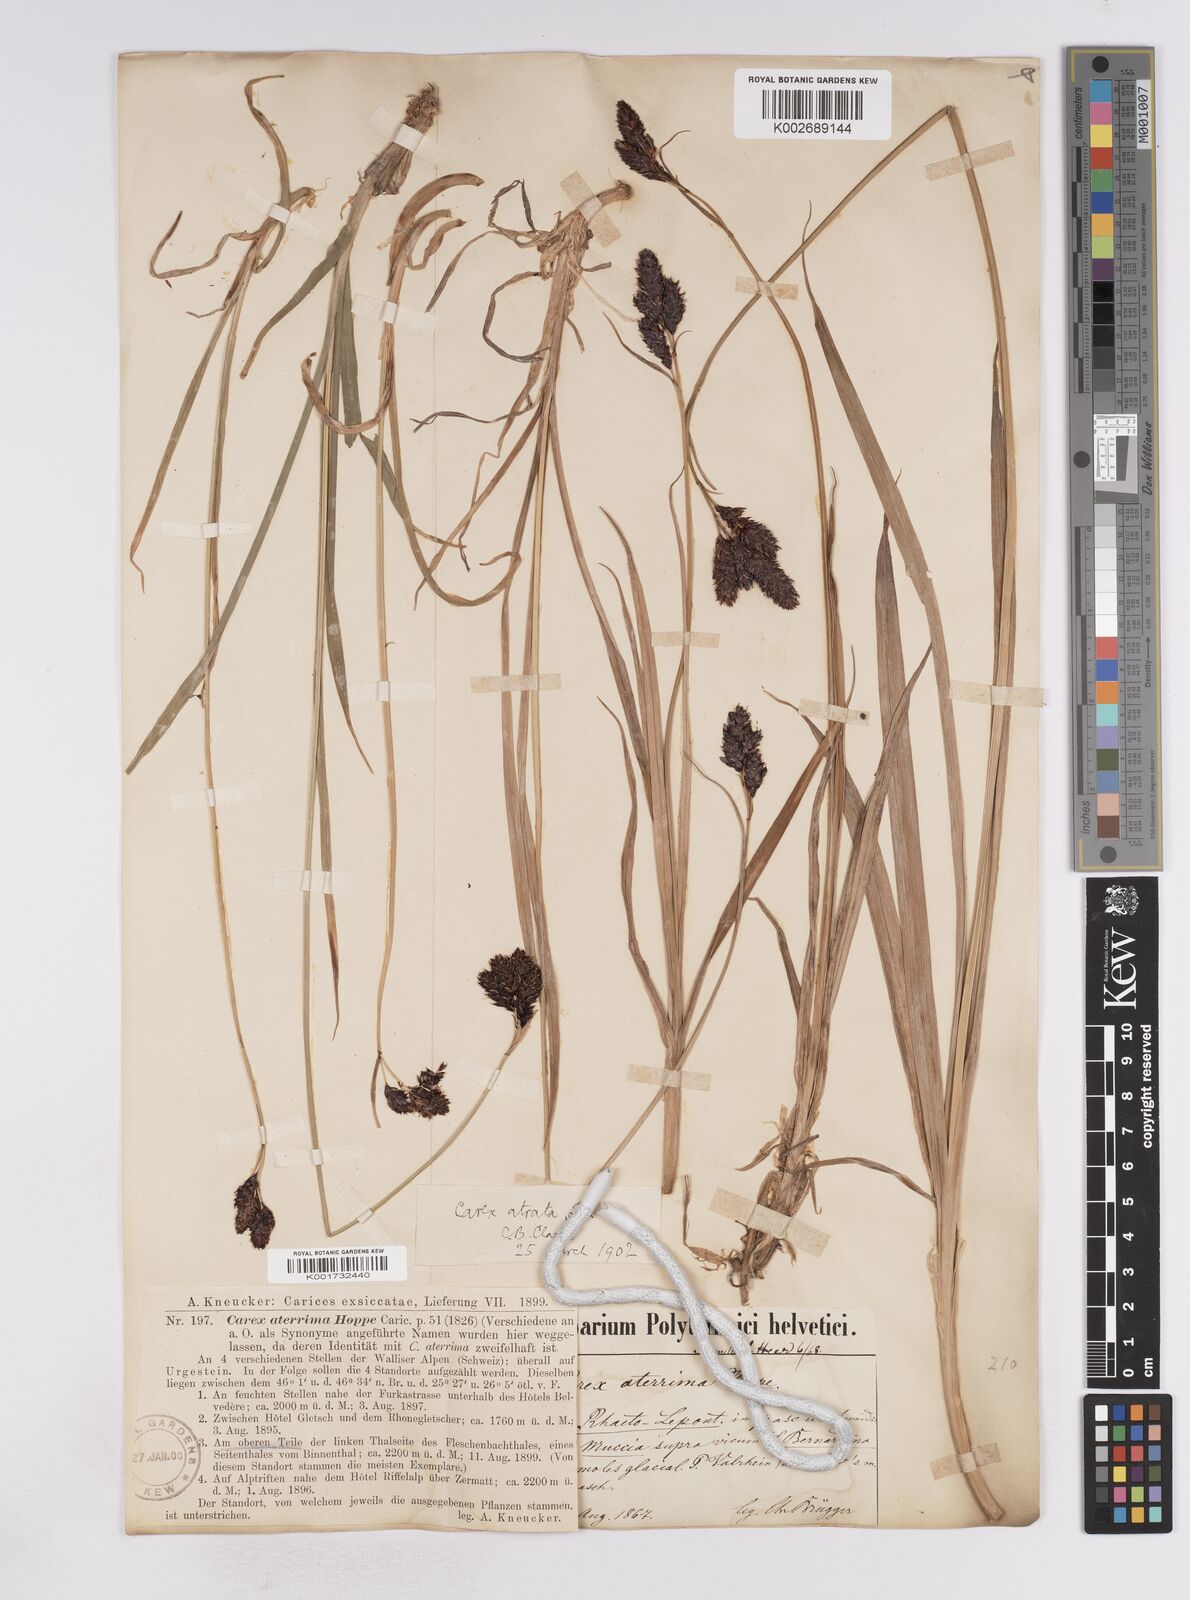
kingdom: Plantae
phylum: Tracheophyta
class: Liliopsida
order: Poales
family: Cyperaceae
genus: Carex
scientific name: Carex aterrima
